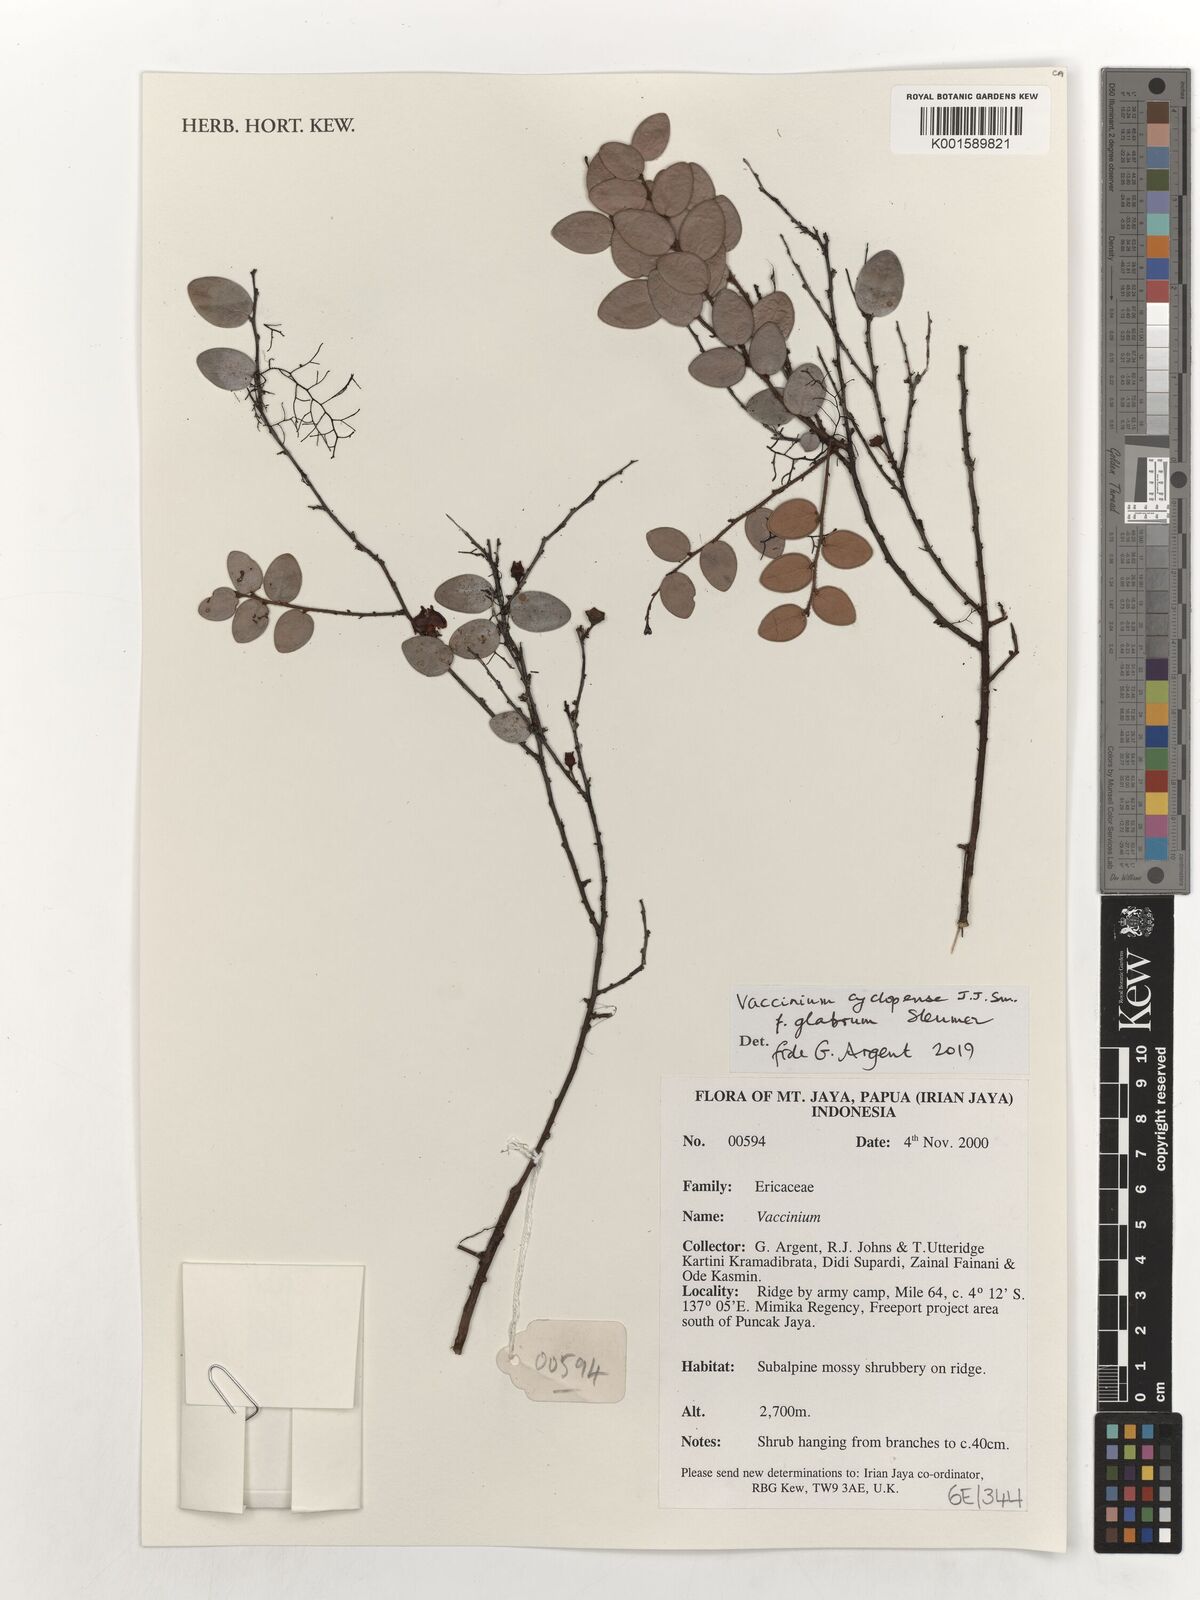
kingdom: Plantae
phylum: Tracheophyta
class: Magnoliopsida
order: Ericales
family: Ericaceae
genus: Vaccinium
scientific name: Vaccinium cyclopense
